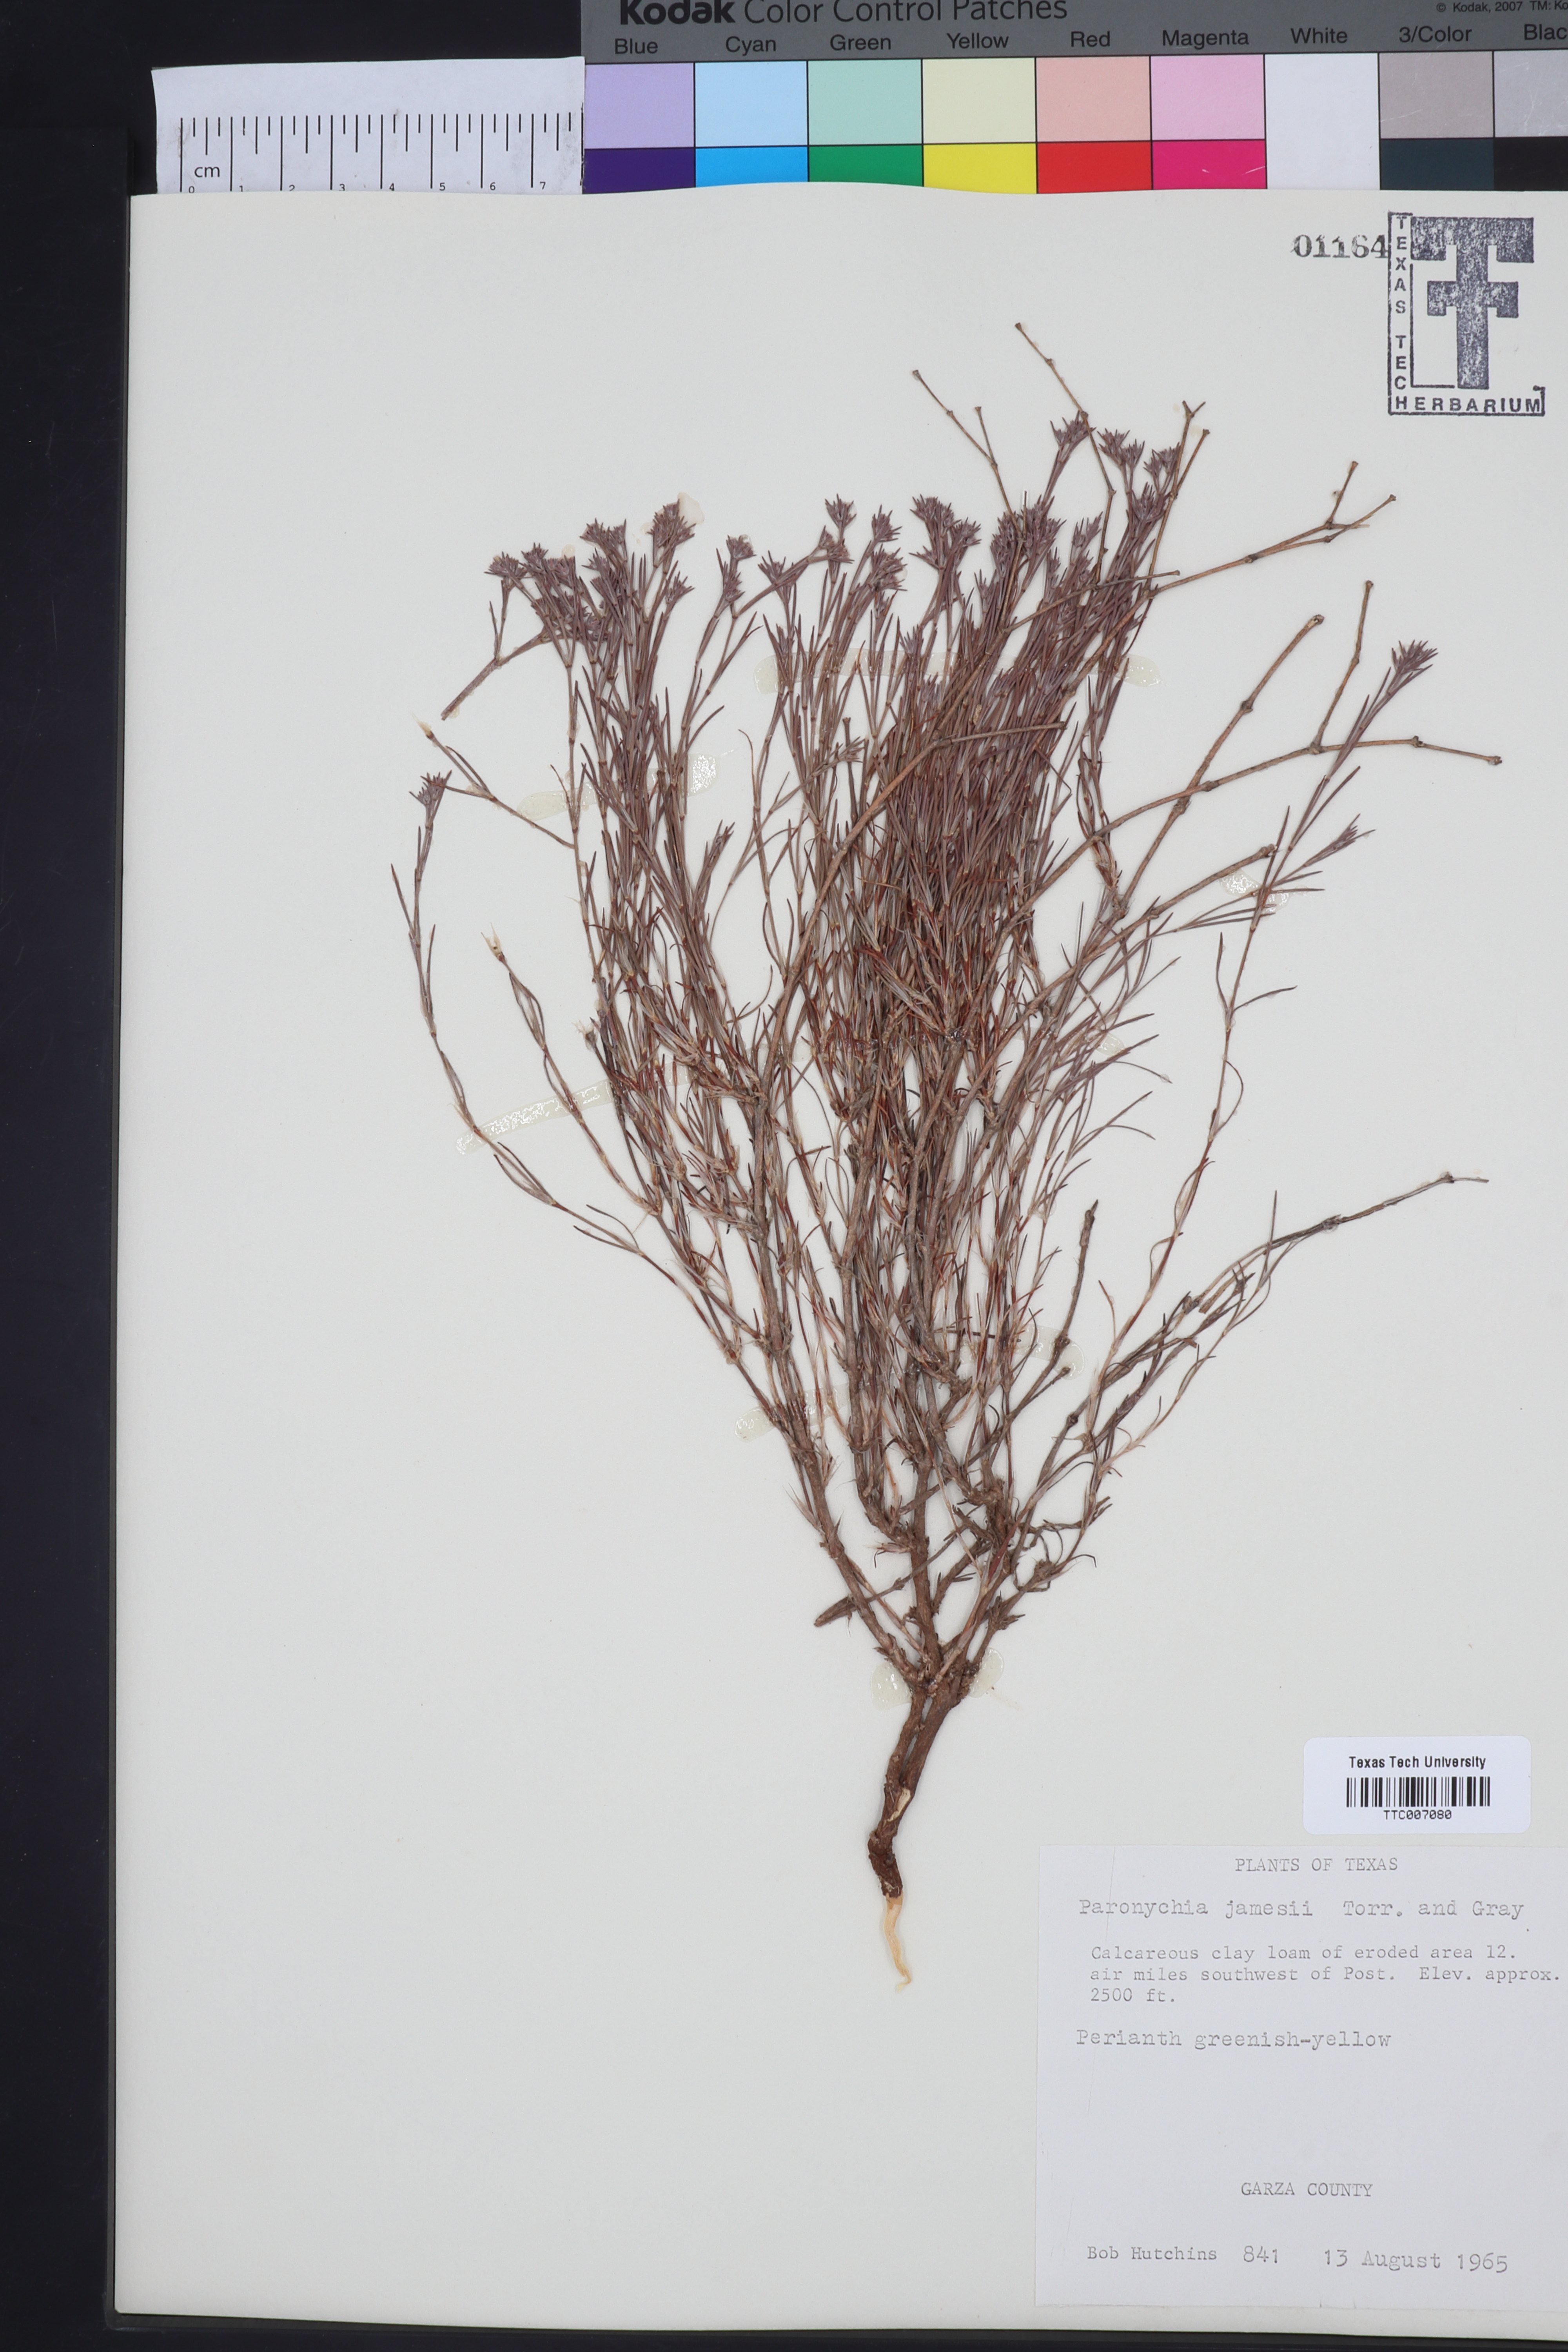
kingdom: Plantae
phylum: Tracheophyta
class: Magnoliopsida
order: Caryophyllales
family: Caryophyllaceae
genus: Paronychia
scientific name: Paronychia jamesii
